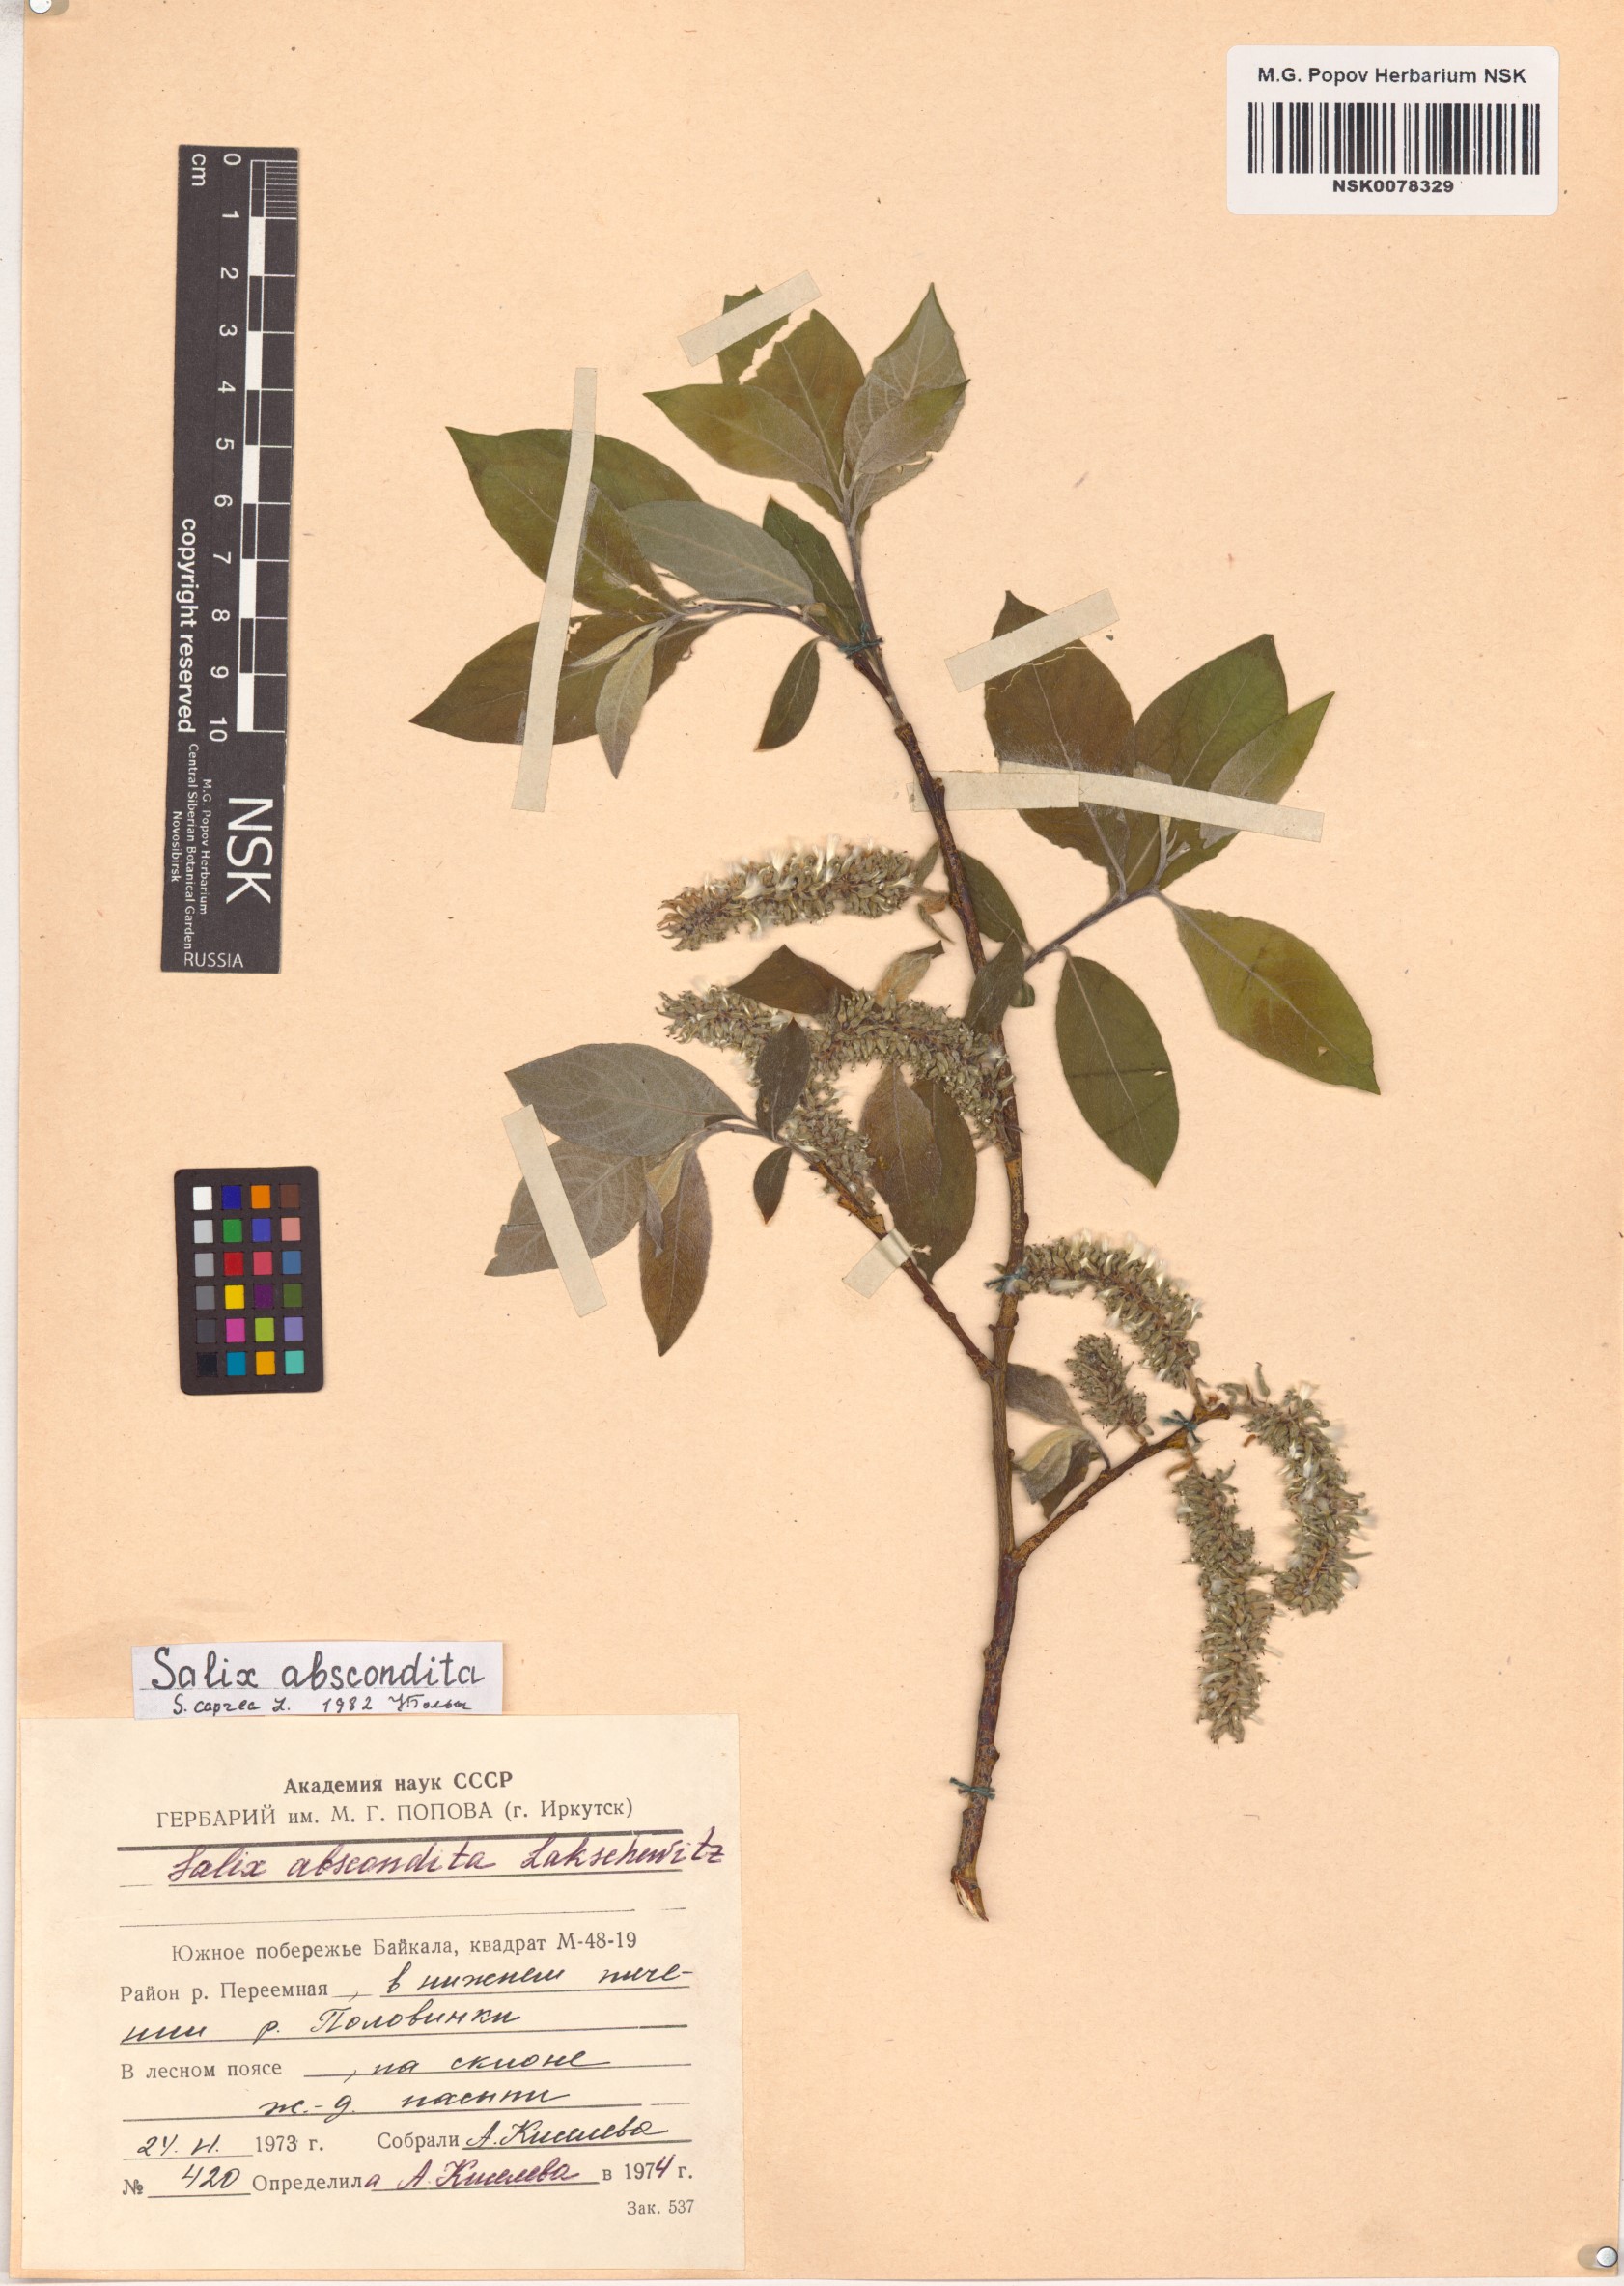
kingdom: Plantae
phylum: Tracheophyta
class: Magnoliopsida
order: Malpighiales
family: Salicaceae
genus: Salix
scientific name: Salix caprea
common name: Goat willow
